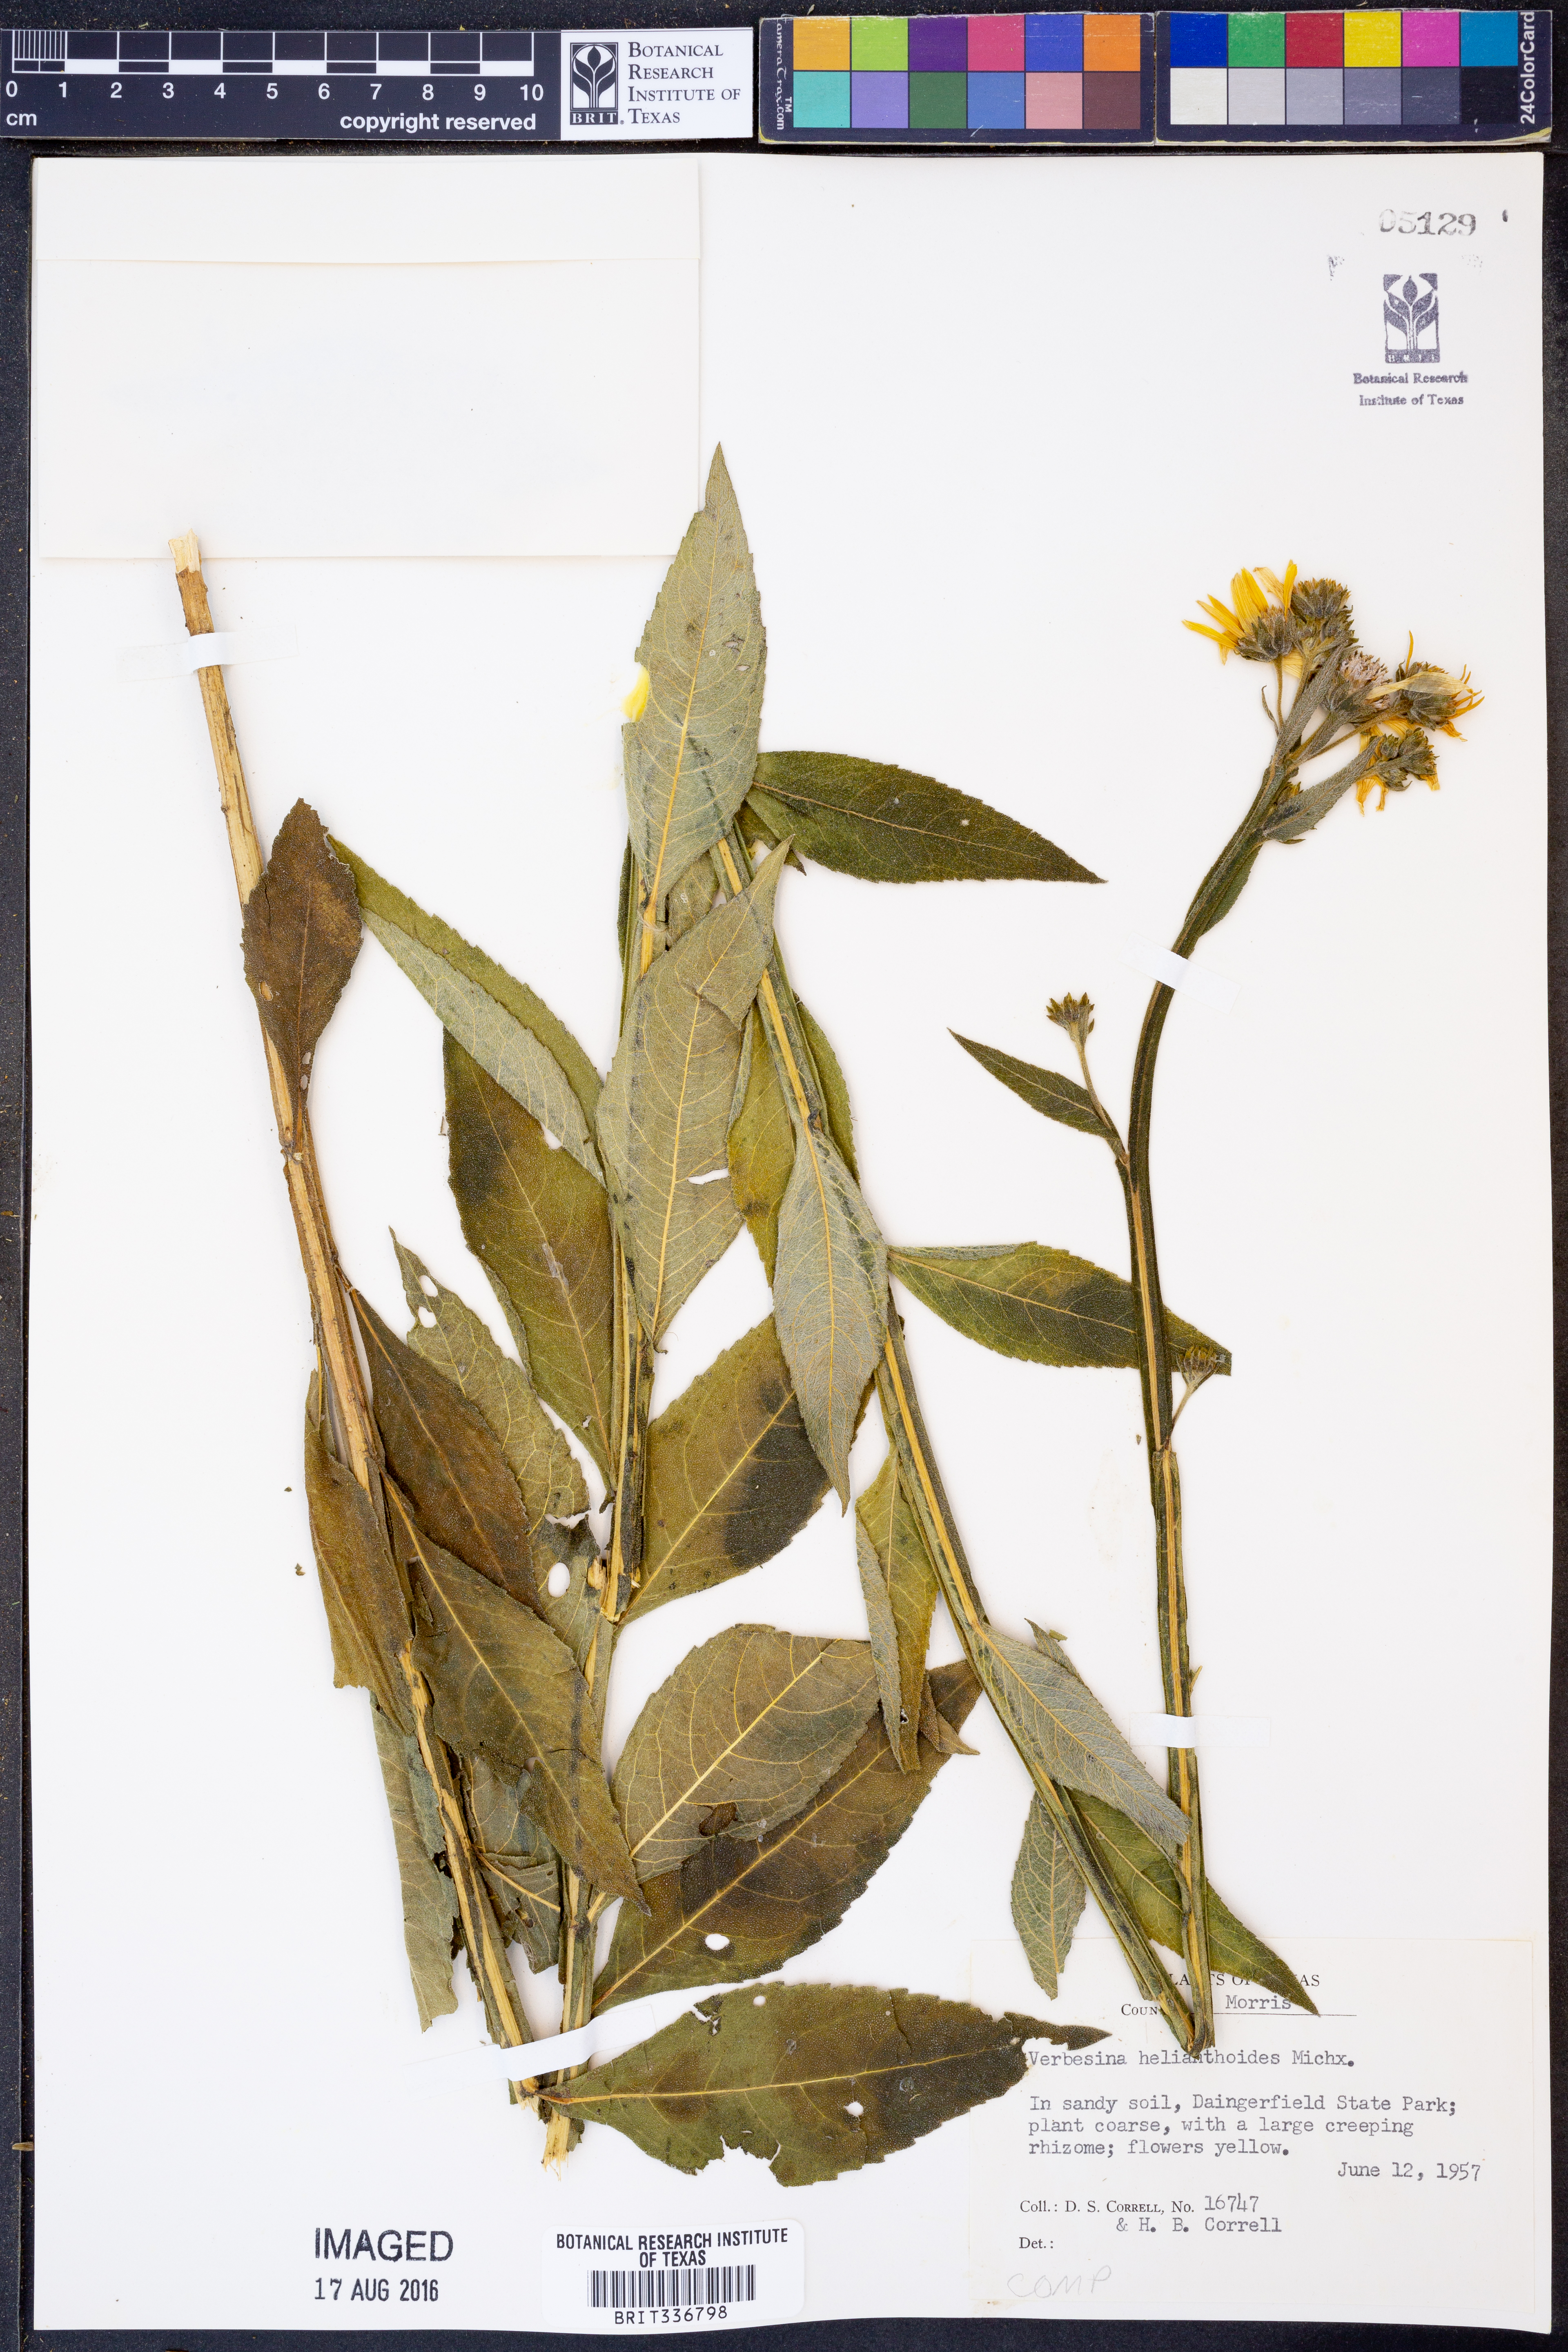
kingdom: Plantae
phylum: Tracheophyta
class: Magnoliopsida
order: Asterales
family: Asteraceae
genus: Verbesina
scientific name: Verbesina helianthoides
